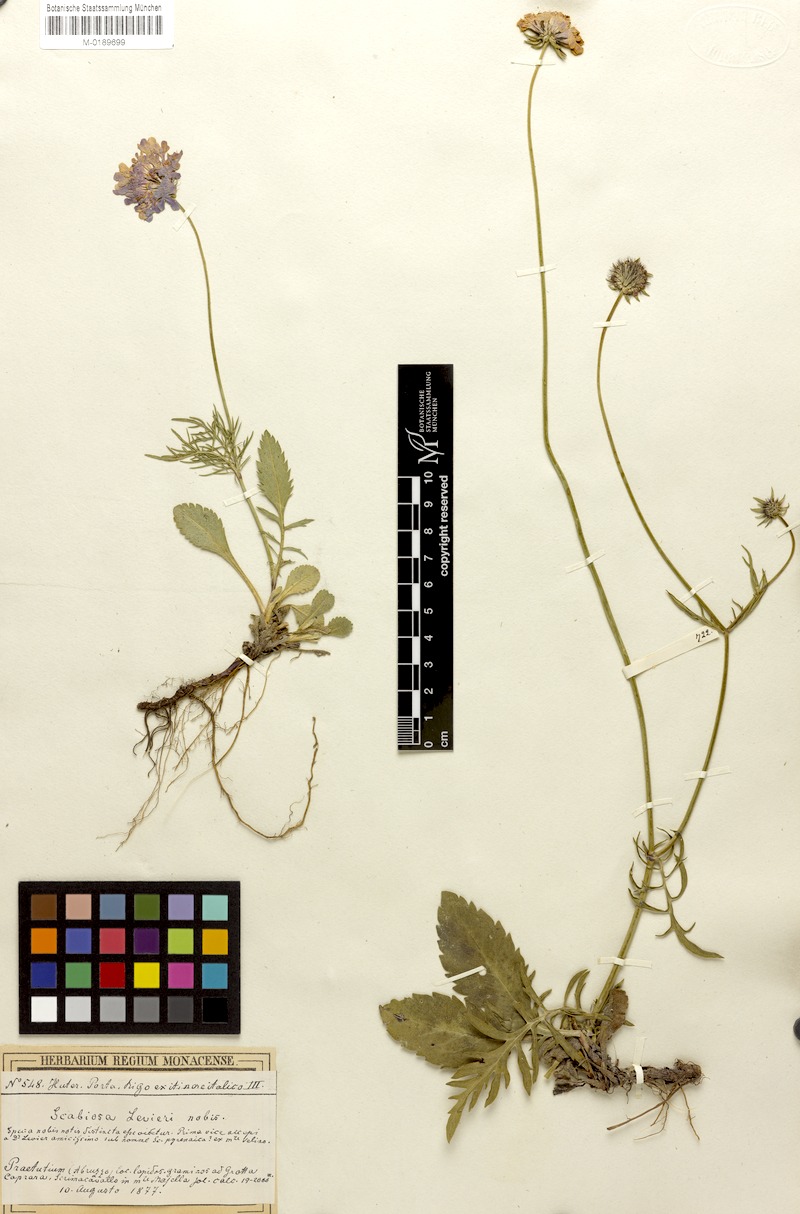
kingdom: Plantae
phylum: Tracheophyta
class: Magnoliopsida
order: Dipsacales
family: Caprifoliaceae
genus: Scabiosa
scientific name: Scabiosa taygetea
